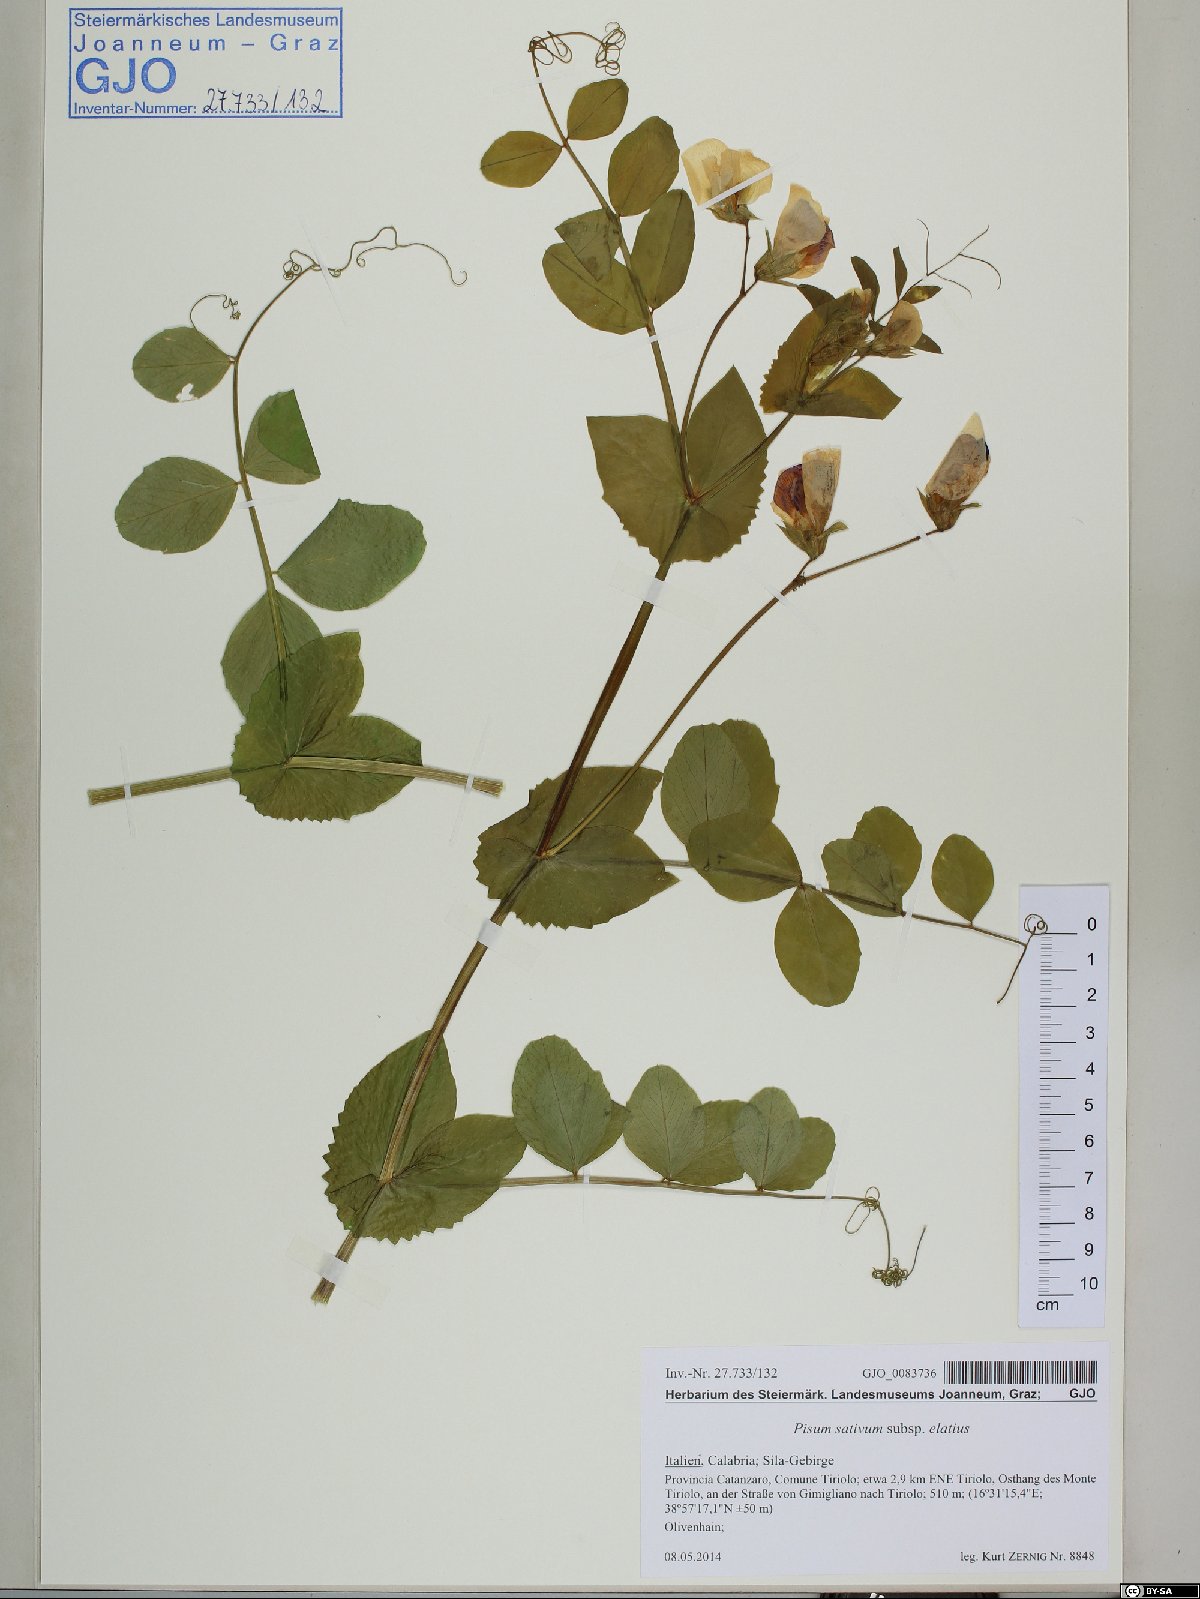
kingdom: Plantae
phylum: Tracheophyta
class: Magnoliopsida
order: Fabales
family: Fabaceae
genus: Lathyrus
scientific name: Lathyrus oleraceus
